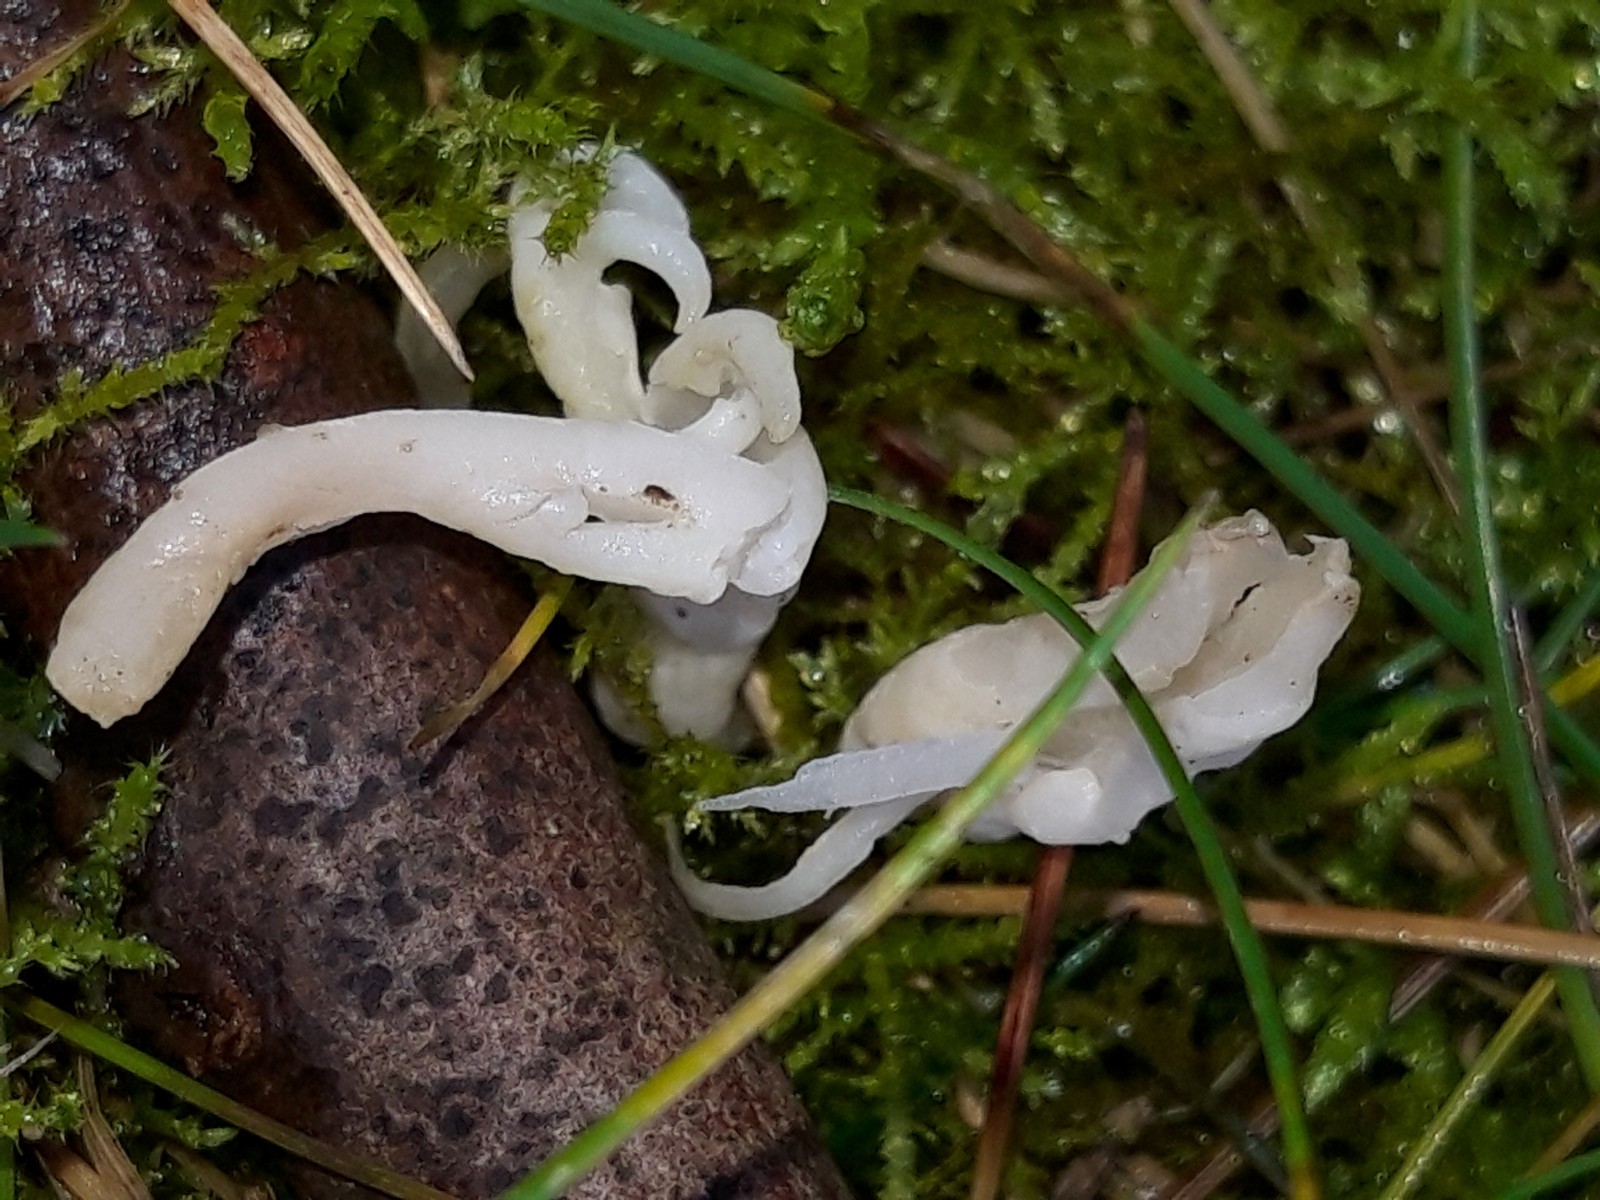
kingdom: Fungi
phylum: Basidiomycota
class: Agaricomycetes
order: Cantharellales
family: Hydnaceae
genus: Clavulina
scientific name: Clavulina
